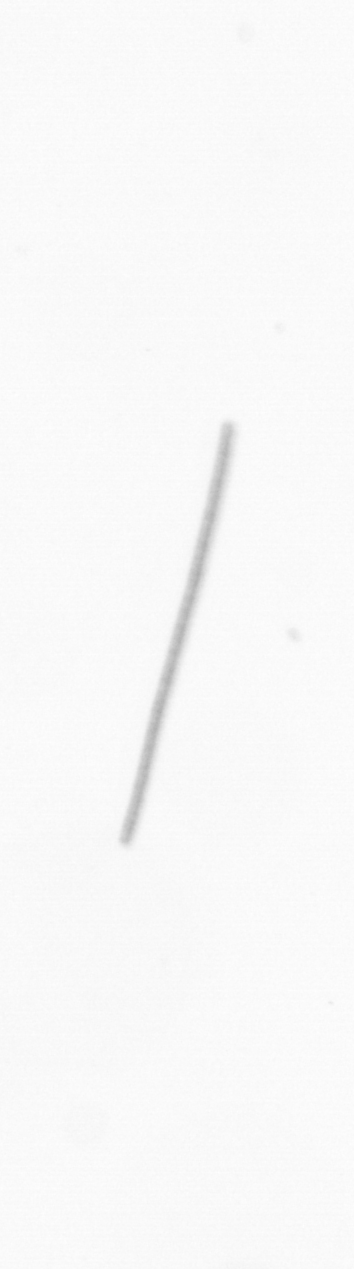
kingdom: Chromista
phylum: Ochrophyta
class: Bacillariophyceae
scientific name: Bacillariophyceae
